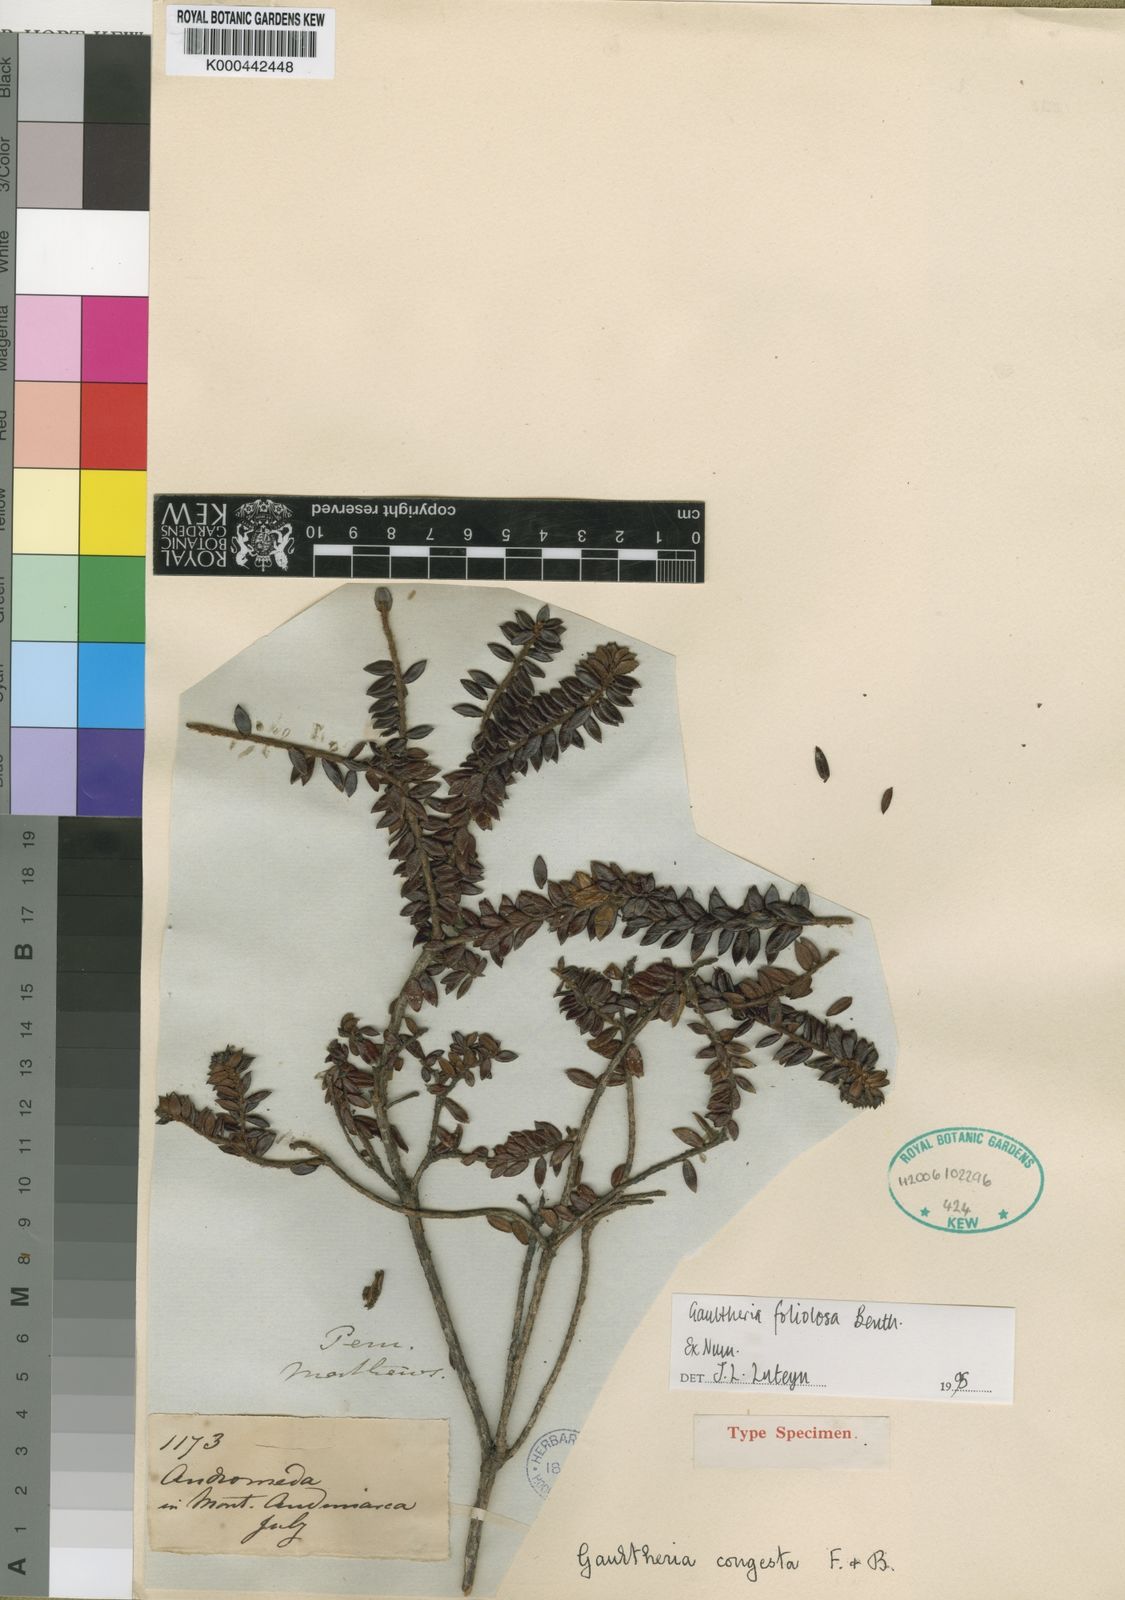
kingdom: Plantae
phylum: Tracheophyta
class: Magnoliopsida
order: Ericales
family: Ericaceae
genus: Gaultheria
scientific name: Gaultheria foliolosa
